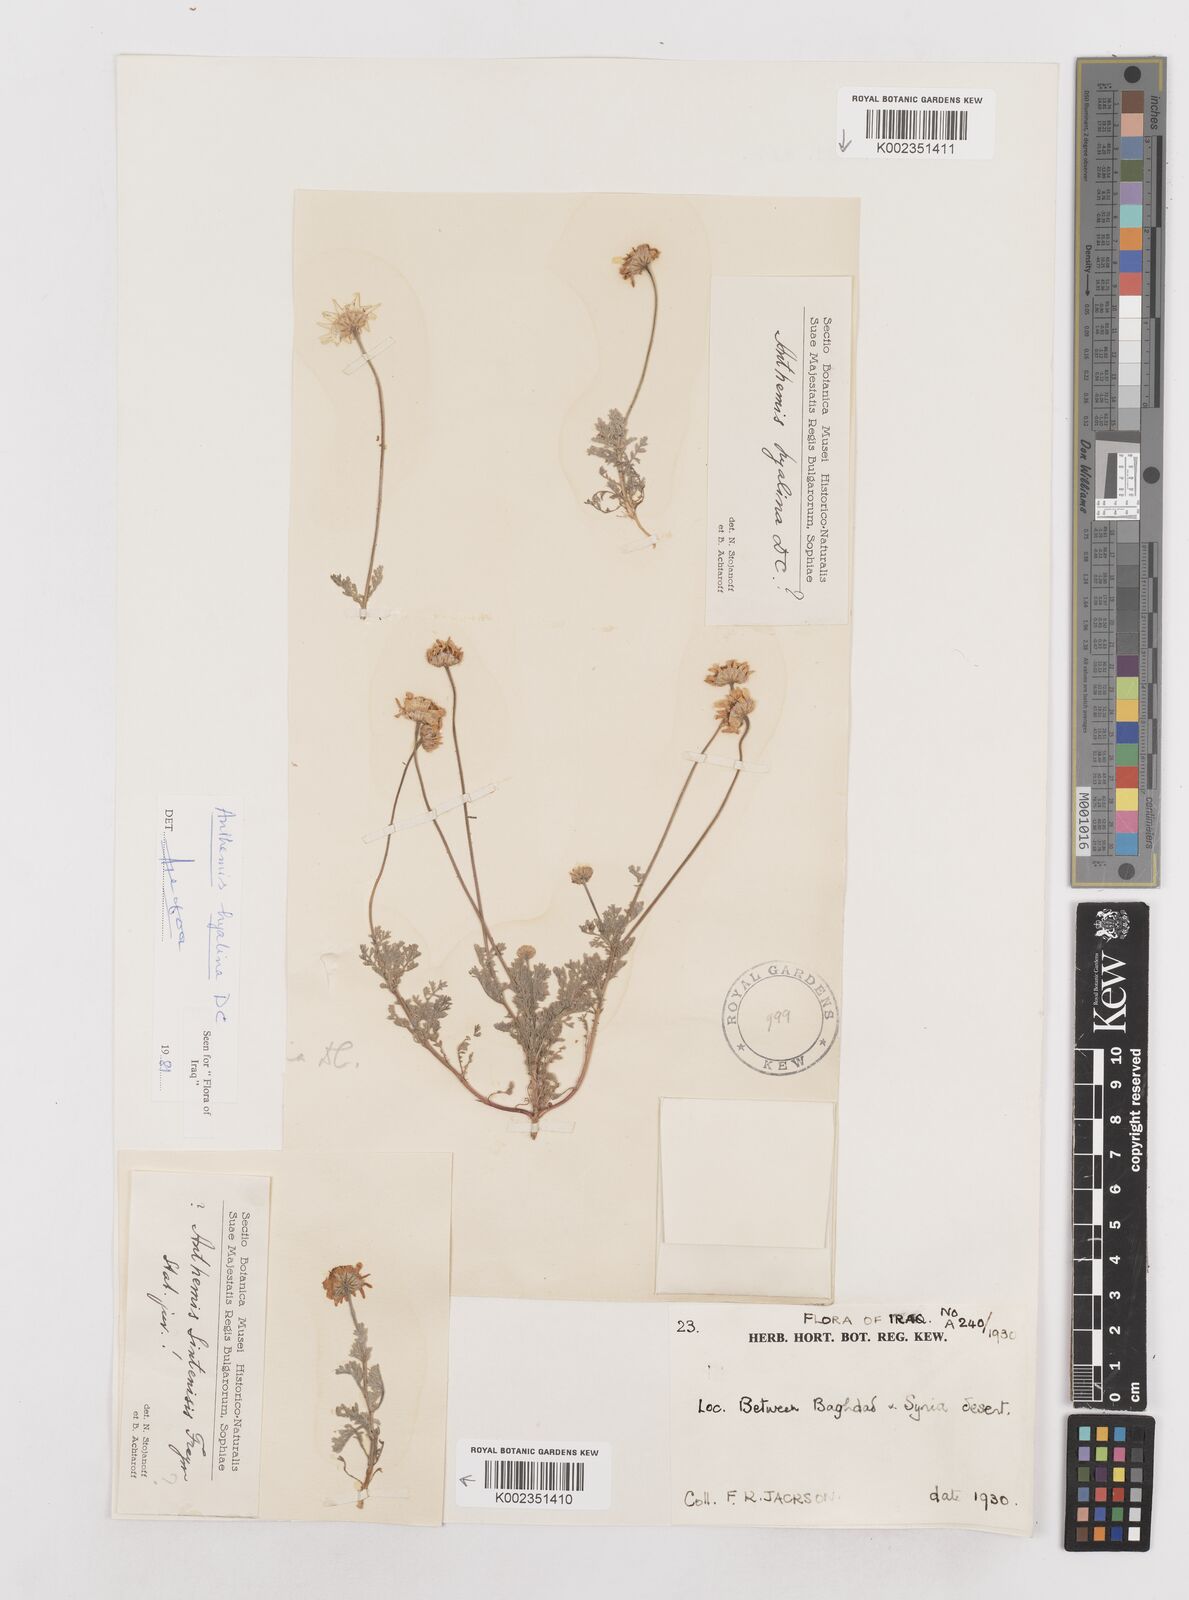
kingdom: Plantae
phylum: Tracheophyta
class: Magnoliopsida
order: Asterales
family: Asteraceae
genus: Anthemis
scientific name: Anthemis hyalina
